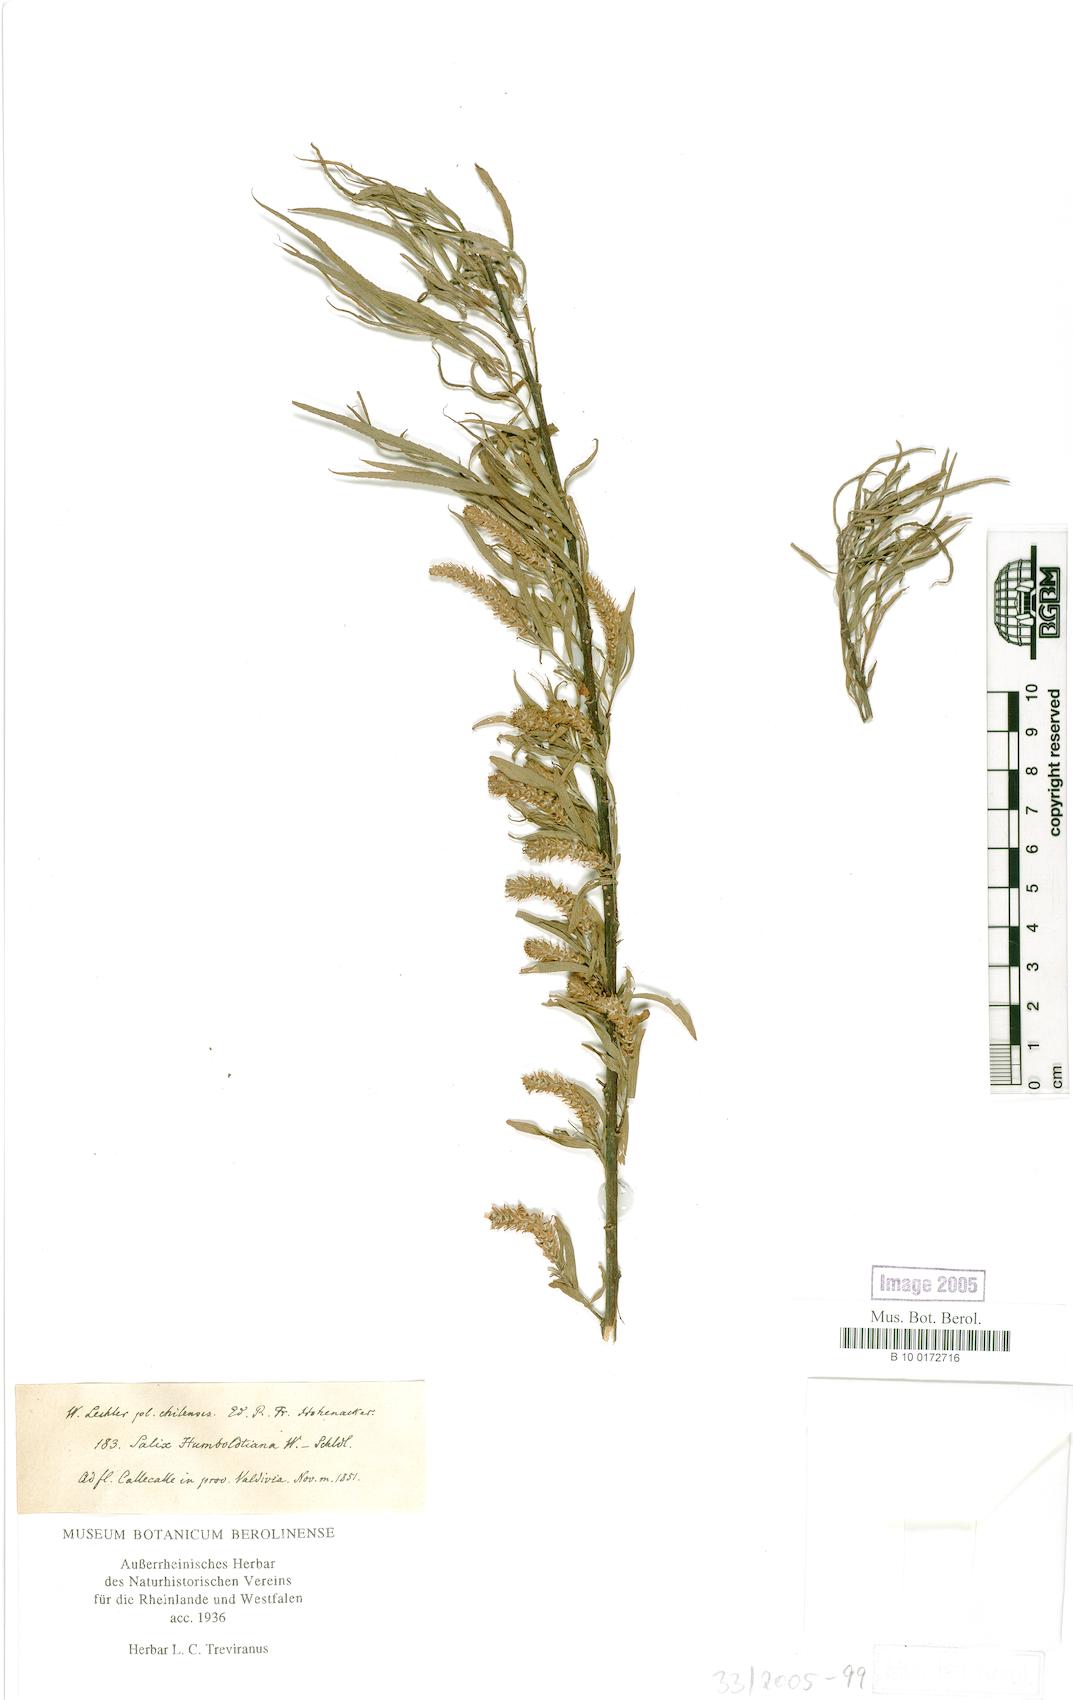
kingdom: Plantae
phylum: Tracheophyta
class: Magnoliopsida
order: Malpighiales
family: Salicaceae
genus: Salix
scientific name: Salix humboldtiana
